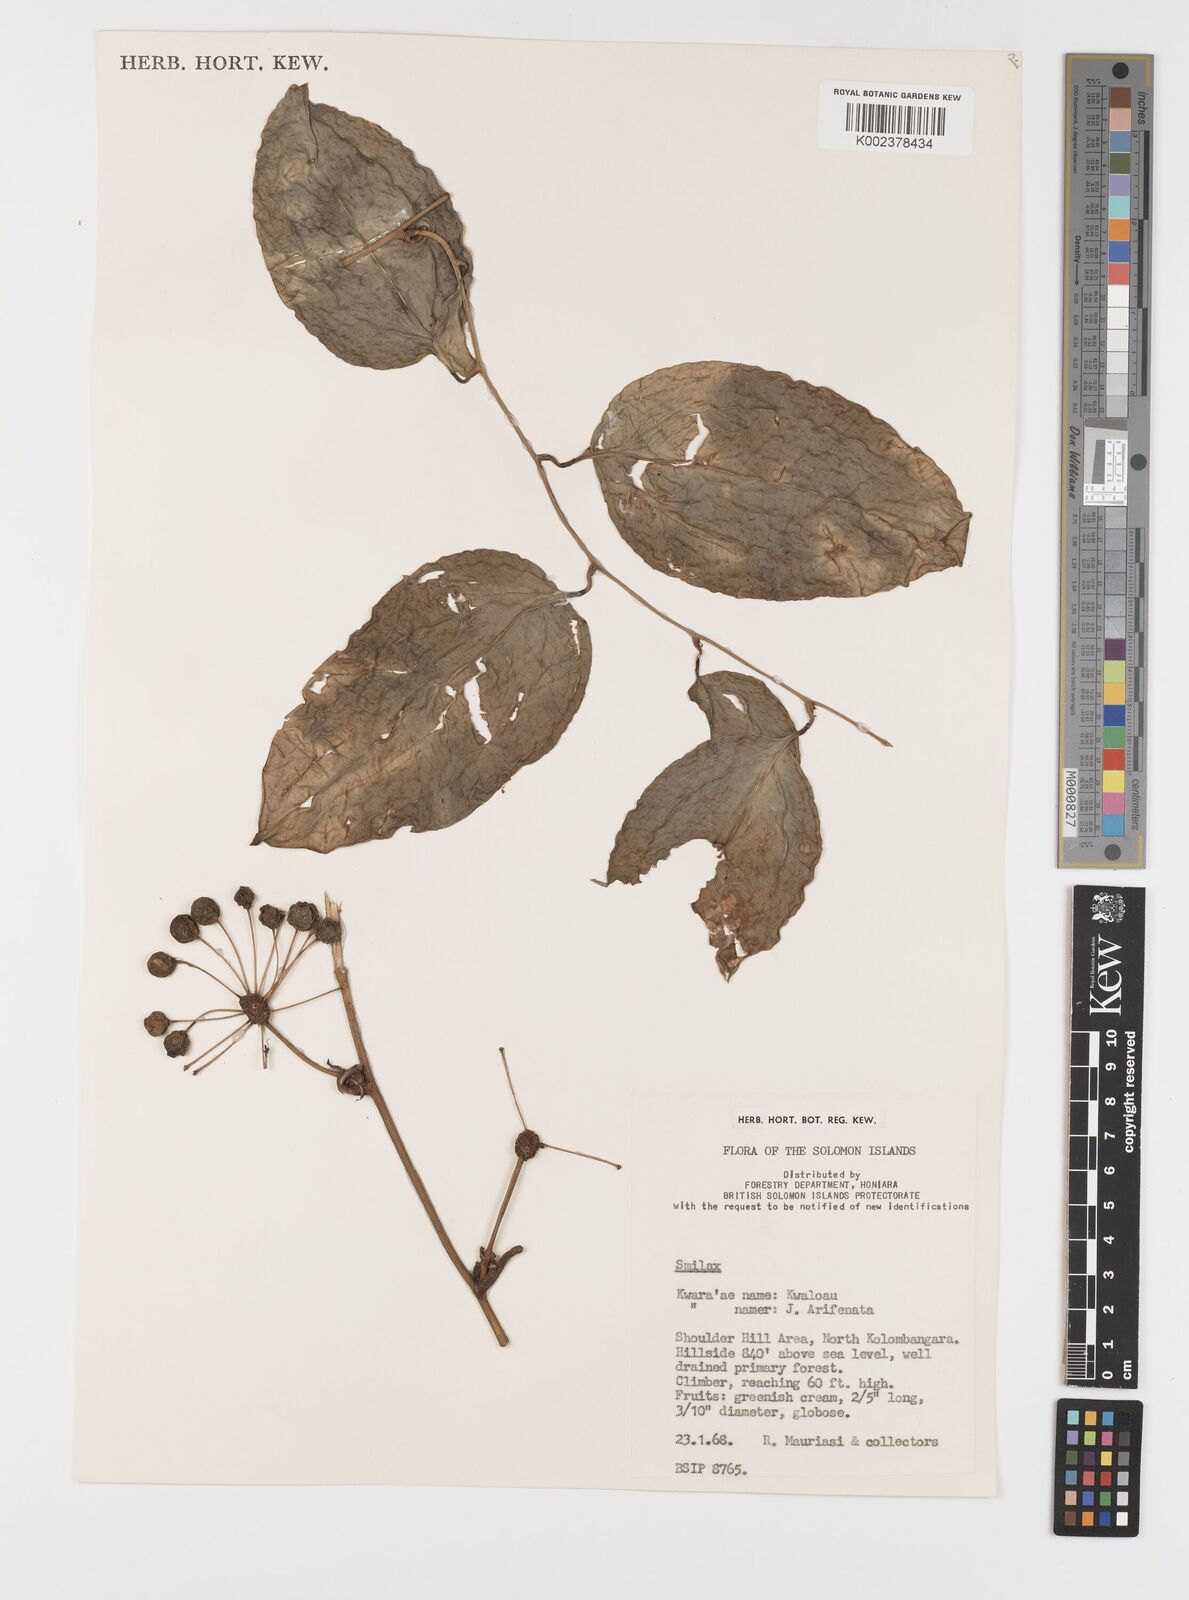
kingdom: Plantae
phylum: Tracheophyta
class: Liliopsida
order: Liliales
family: Smilacaceae
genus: Smilax
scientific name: Smilax
